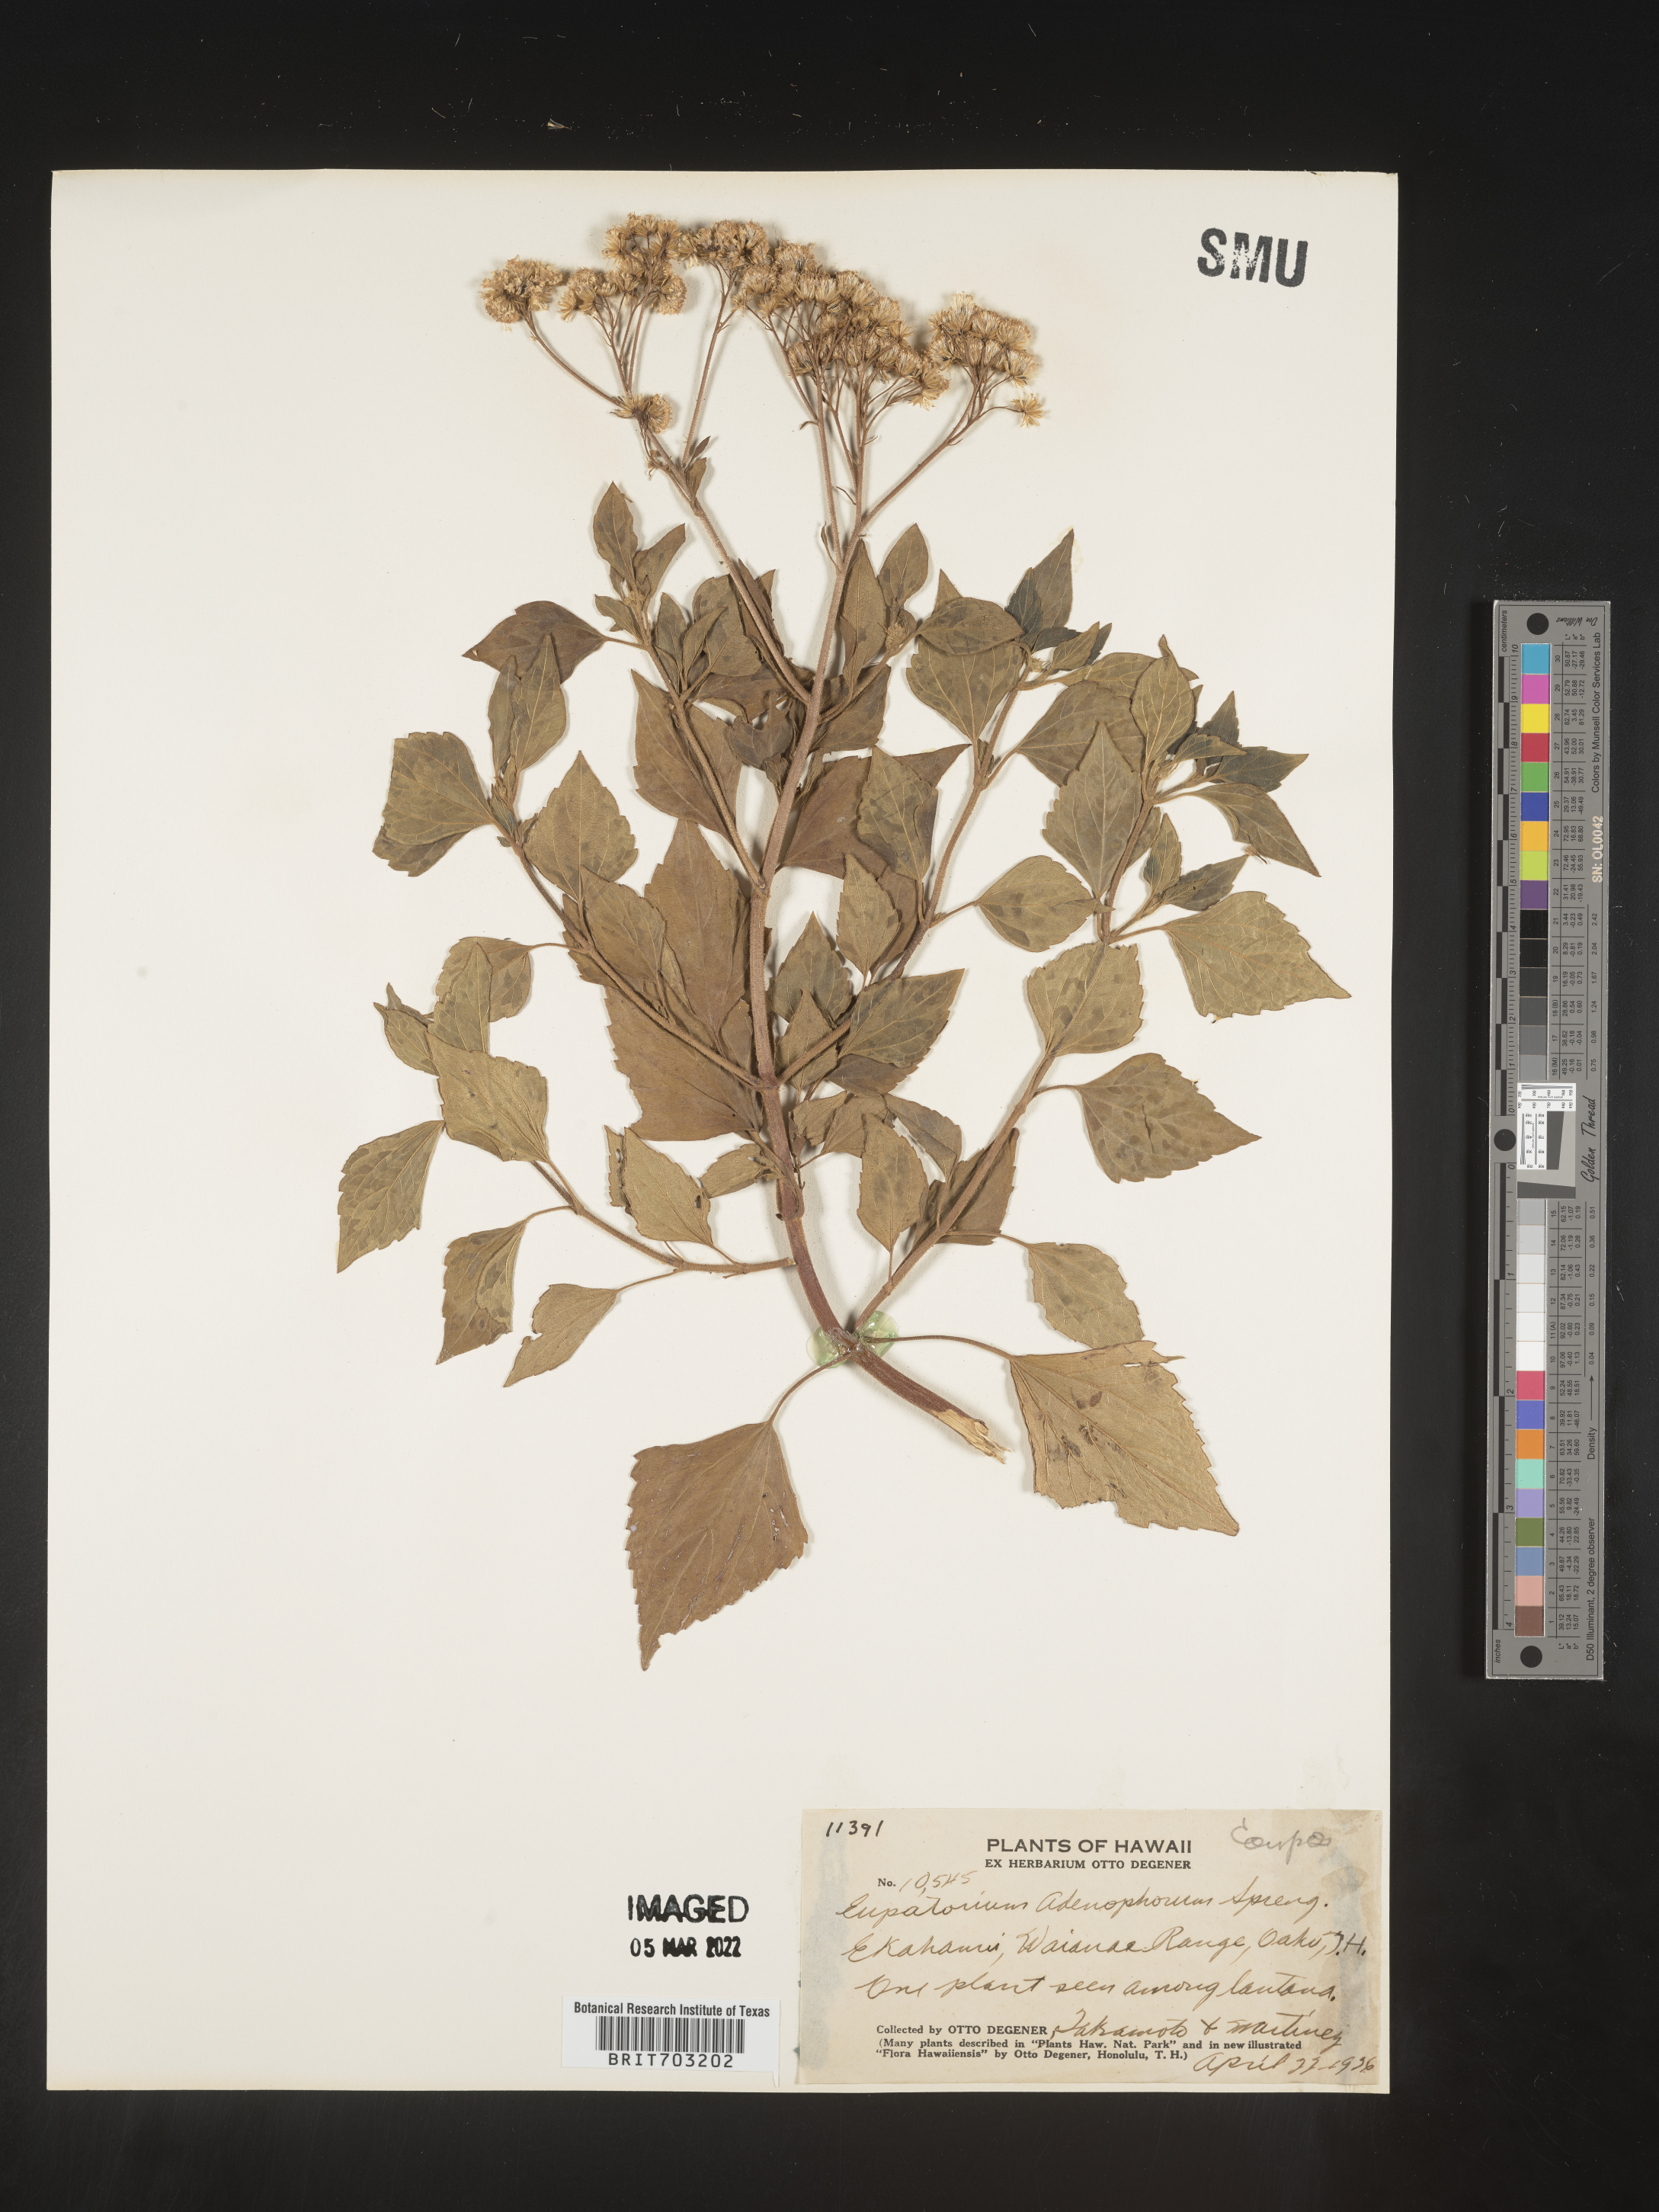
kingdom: Plantae
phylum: Tracheophyta
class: Magnoliopsida
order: Asterales
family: Asteraceae
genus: Eupatorium
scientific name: Eupatorium
